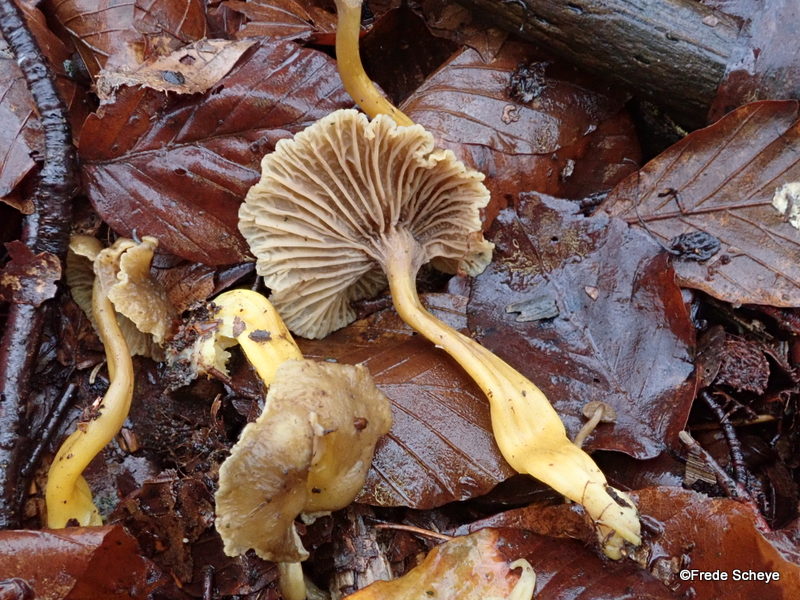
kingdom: Fungi
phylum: Basidiomycota
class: Agaricomycetes
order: Cantharellales
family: Hydnaceae
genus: Craterellus
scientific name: Craterellus tubaeformis
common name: tragt-kantarel
